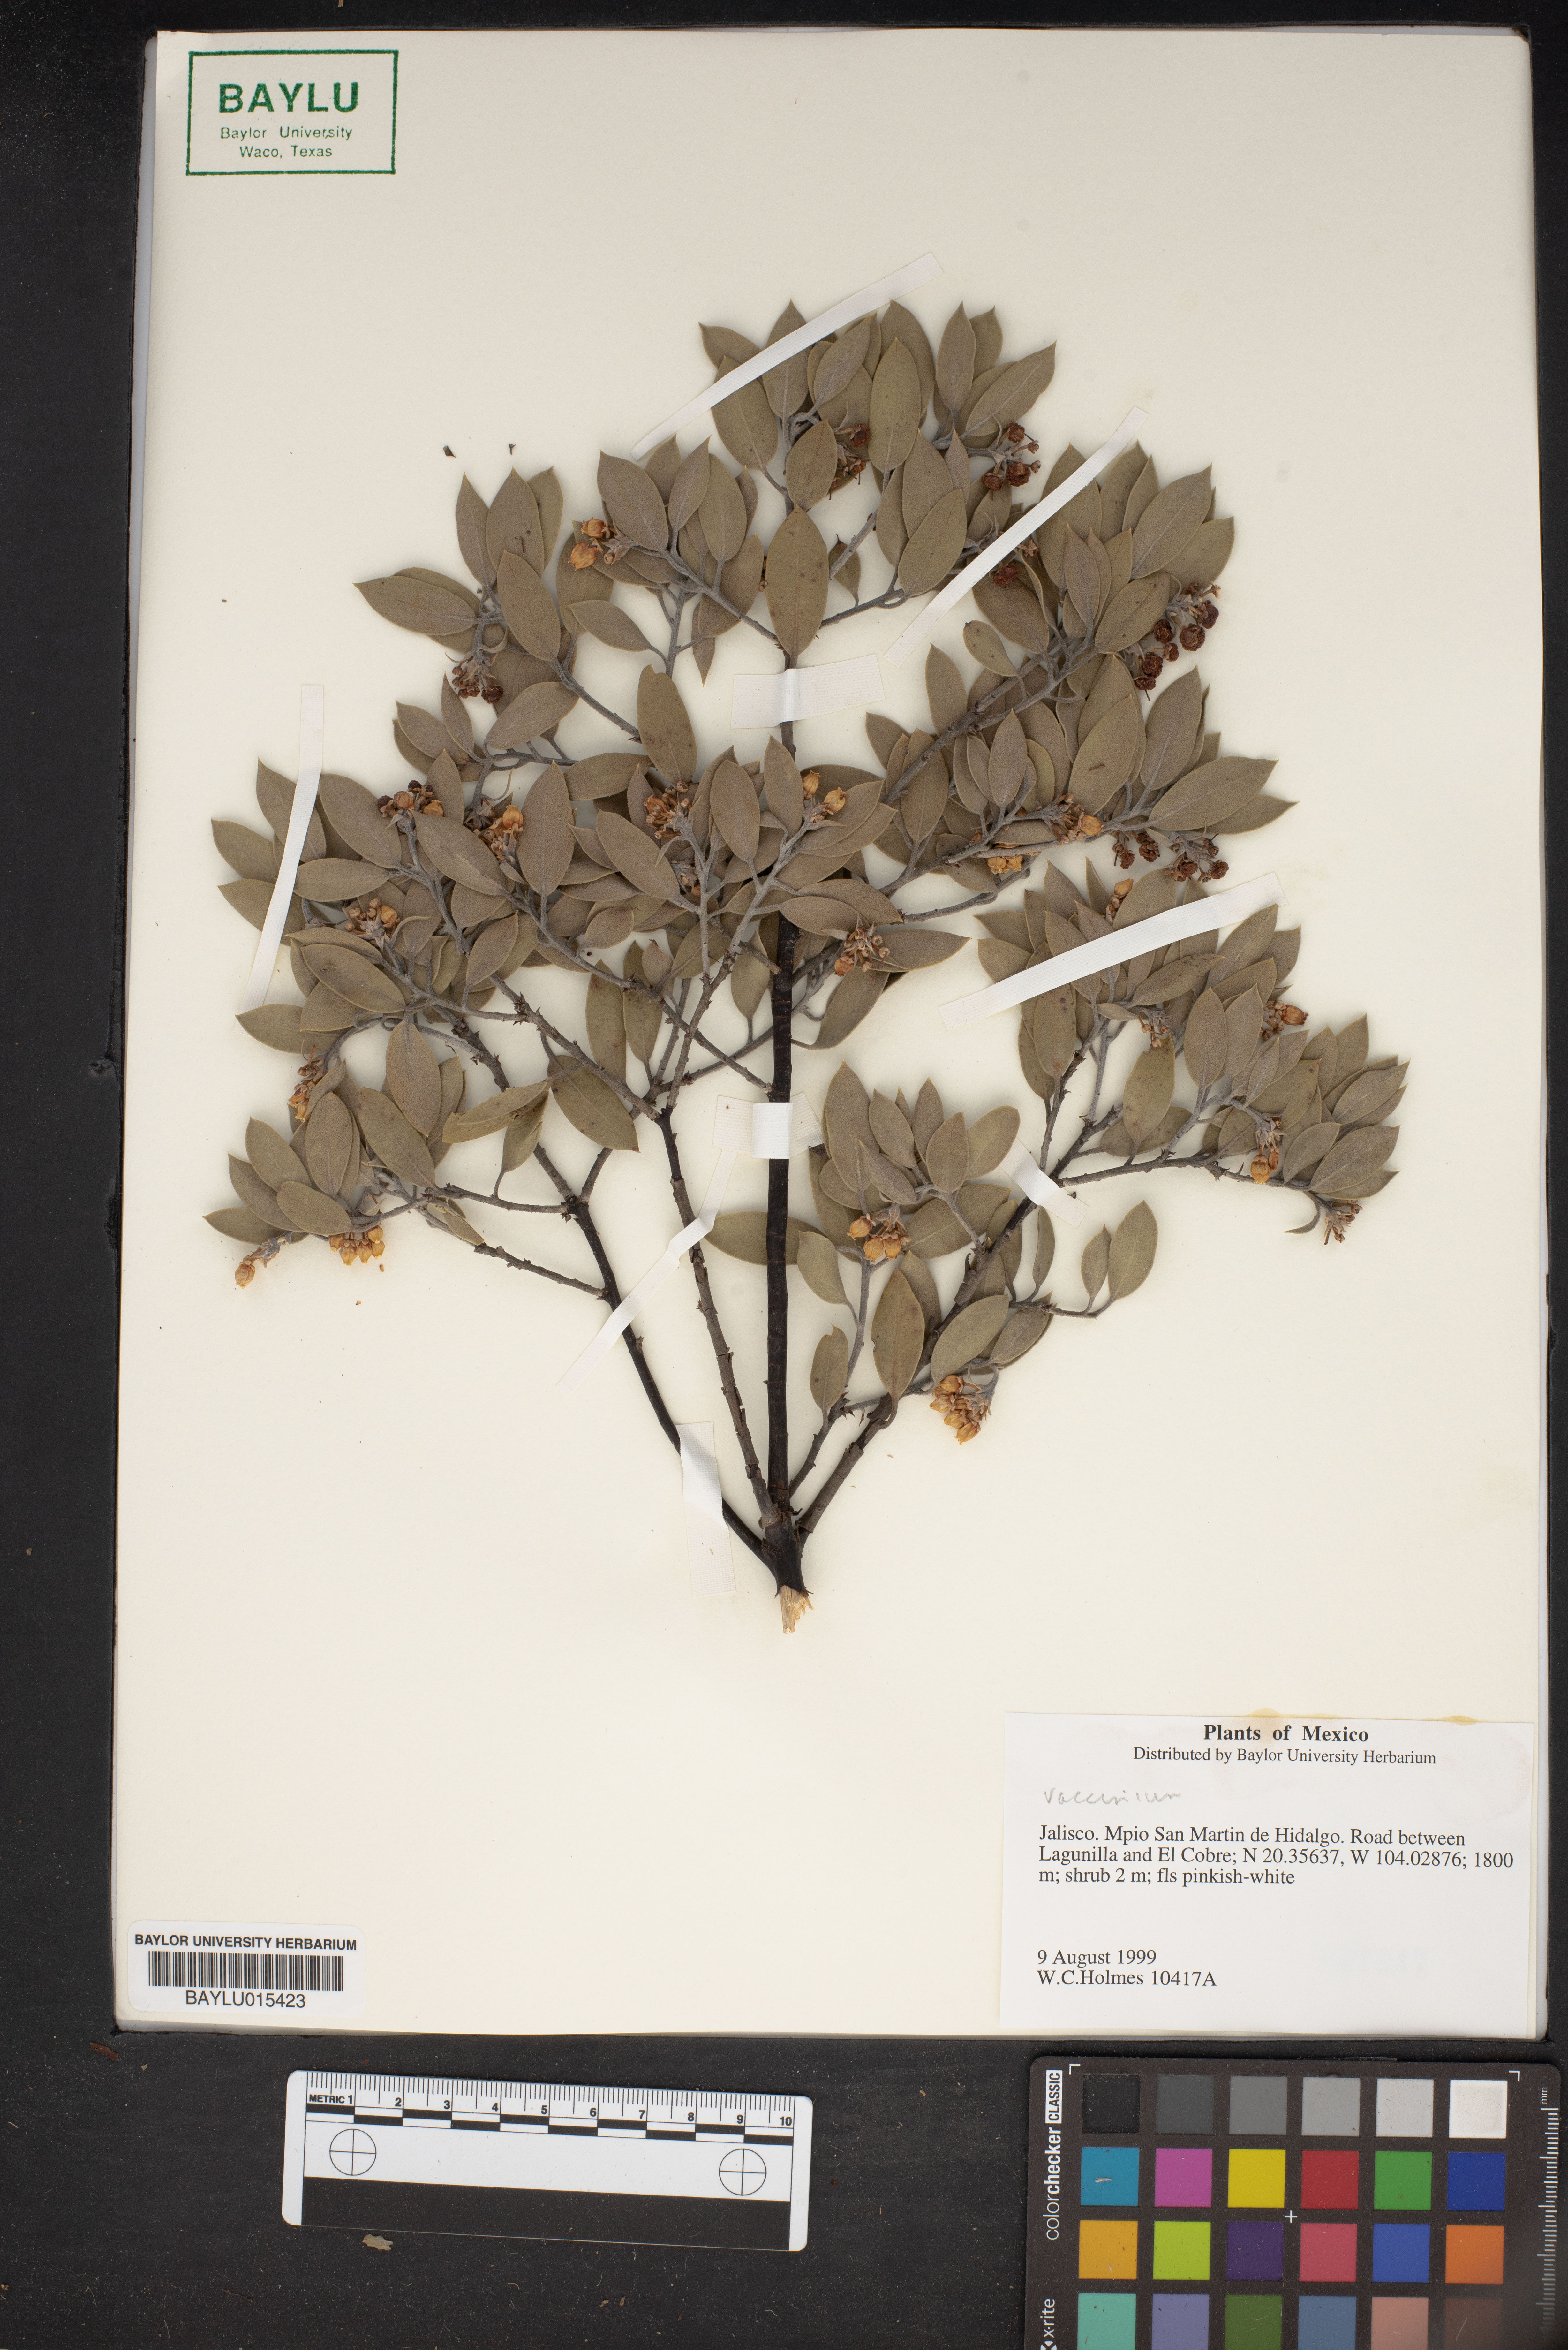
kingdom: Plantae
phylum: Tracheophyta
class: Magnoliopsida
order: Ericales
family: Ericaceae
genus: Vaccinium
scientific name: Vaccinium
